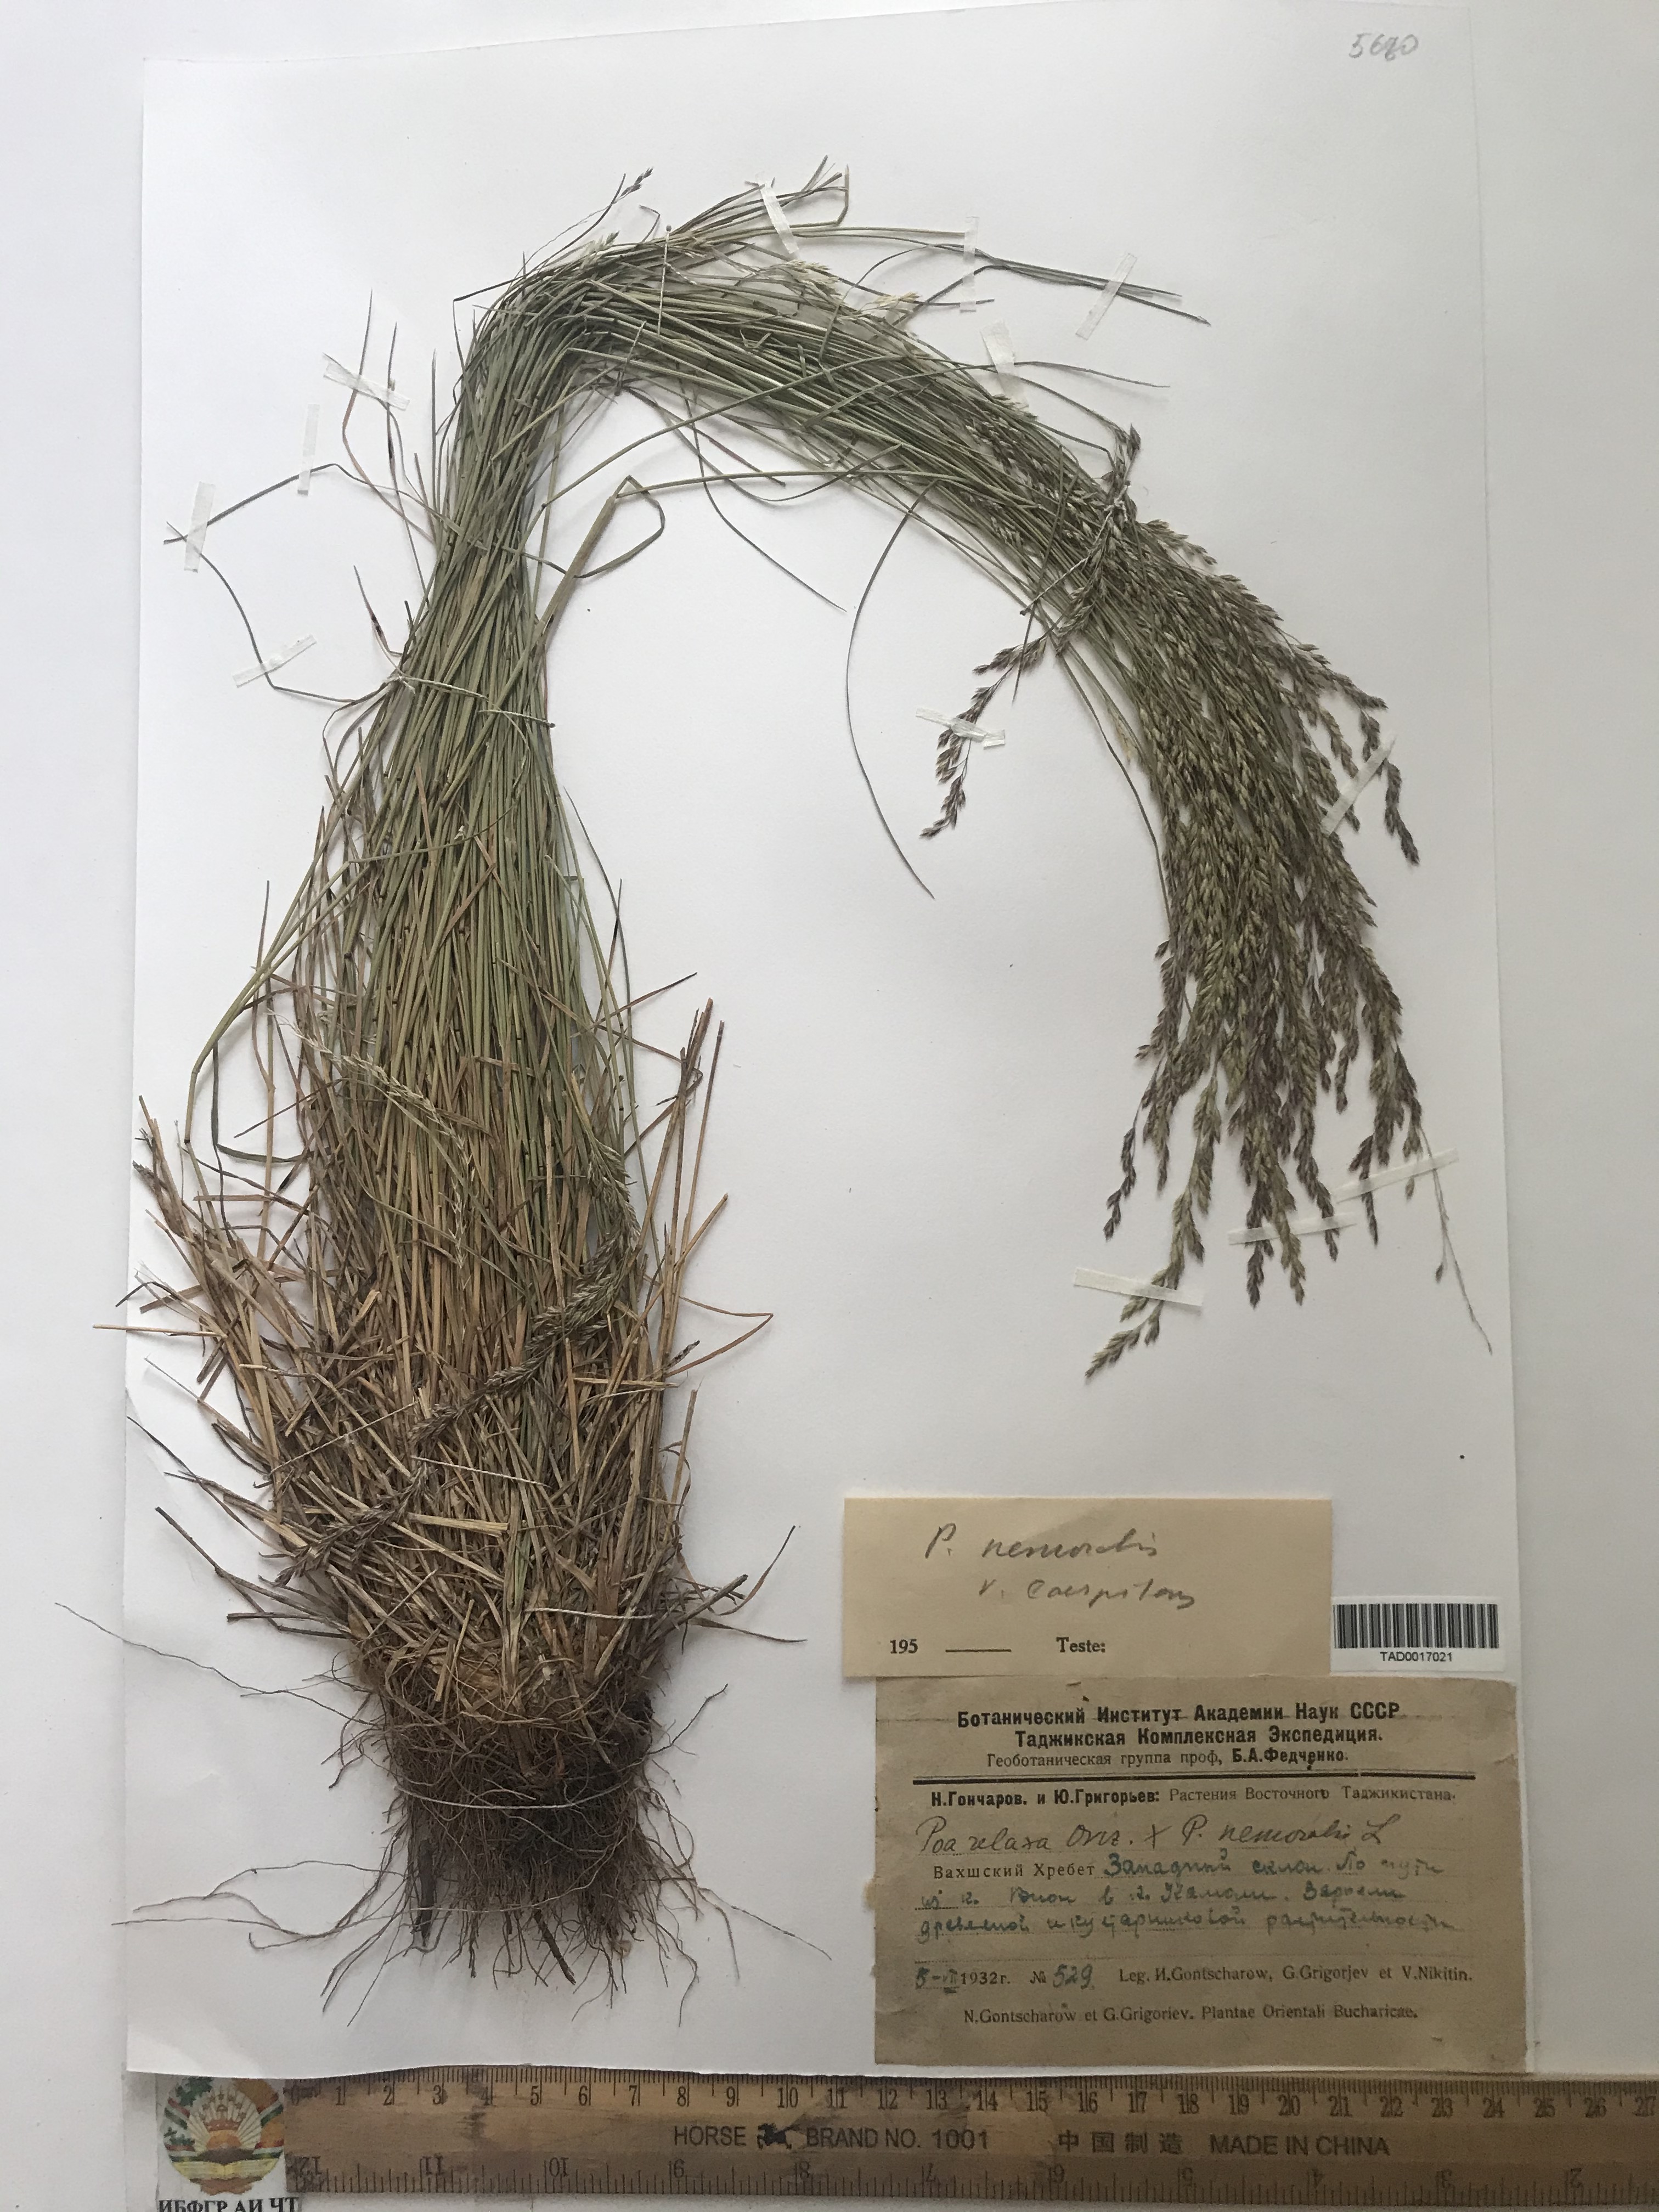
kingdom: Plantae
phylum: Tracheophyta
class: Liliopsida
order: Poales
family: Poaceae
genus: Poa
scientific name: Poa nemoralis
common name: Wood bluegrass
